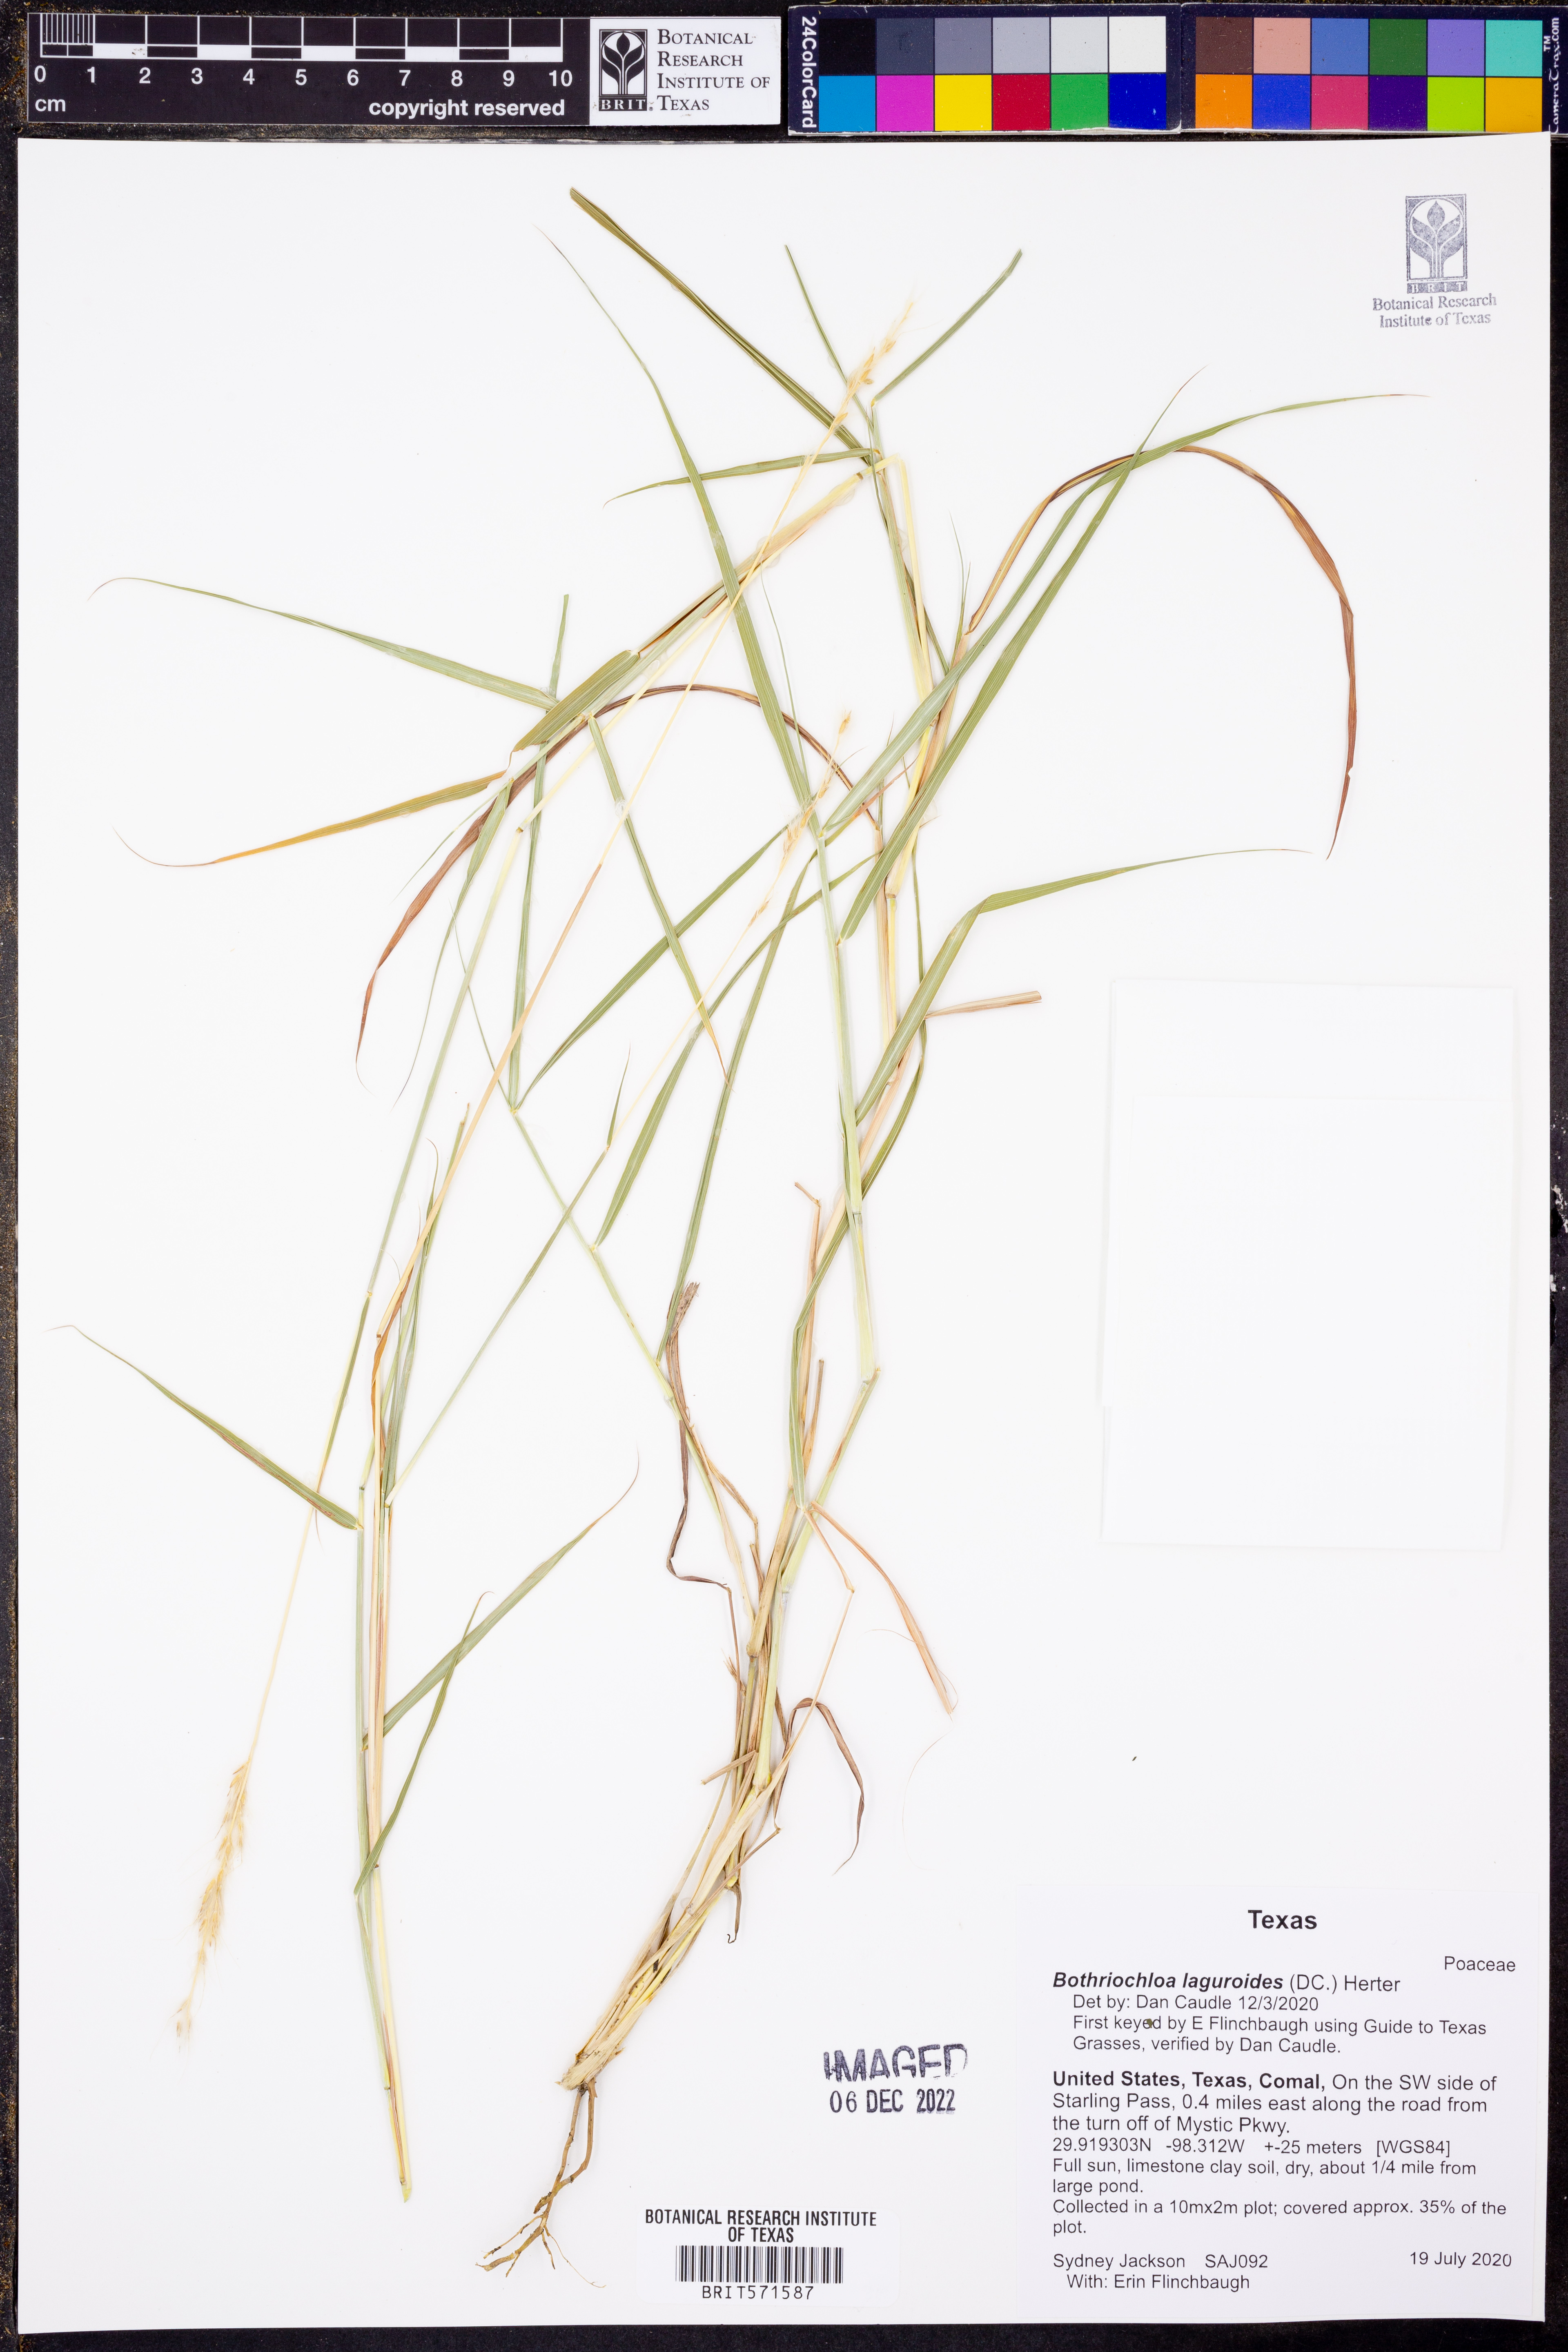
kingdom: Plantae
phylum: Tracheophyta
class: Liliopsida
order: Poales
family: Poaceae
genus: Bothriochloa
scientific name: Bothriochloa laguroides
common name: Silver bluestem
